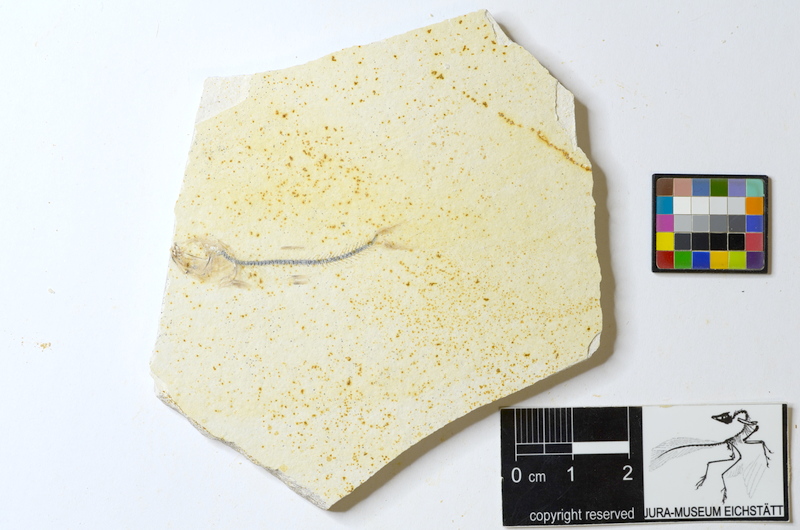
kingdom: Animalia
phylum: Chordata
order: Salmoniformes
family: Orthogonikleithridae
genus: Orthogonikleithrus
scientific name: Orthogonikleithrus hoelli
